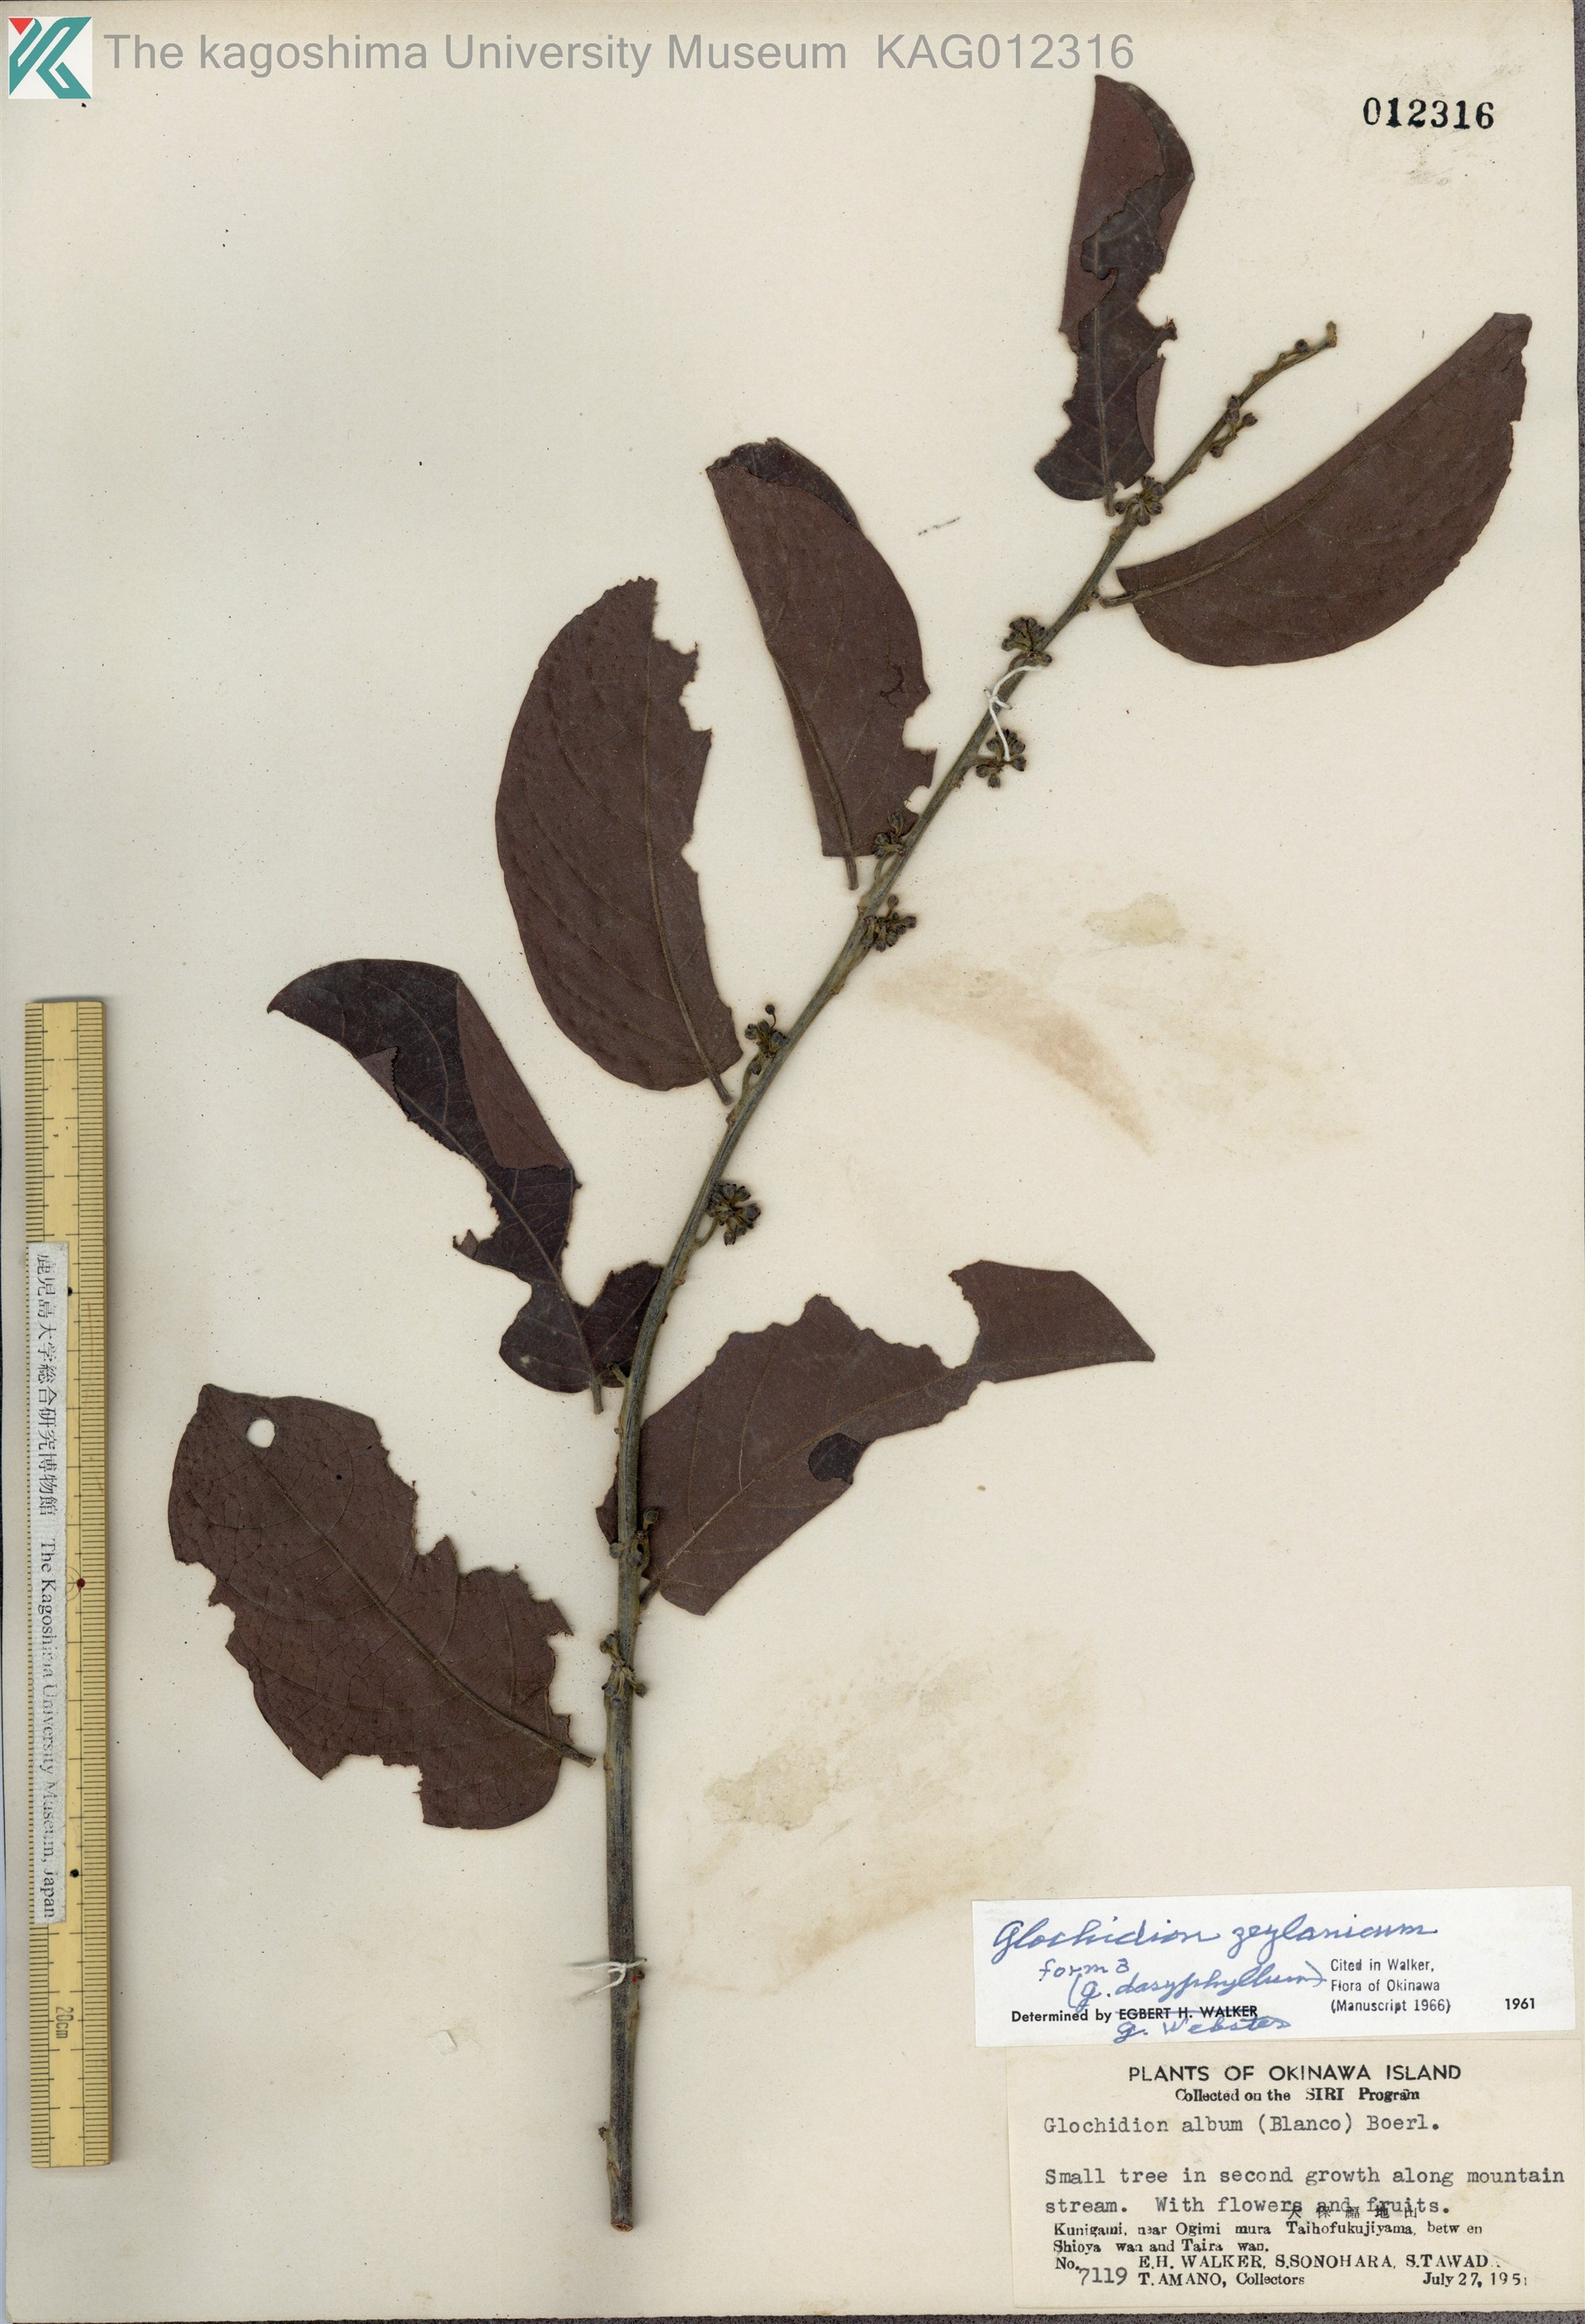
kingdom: Plantae
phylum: Tracheophyta
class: Magnoliopsida
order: Malpighiales
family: Phyllanthaceae
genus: Glochidion
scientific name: Glochidion zeylanicum
